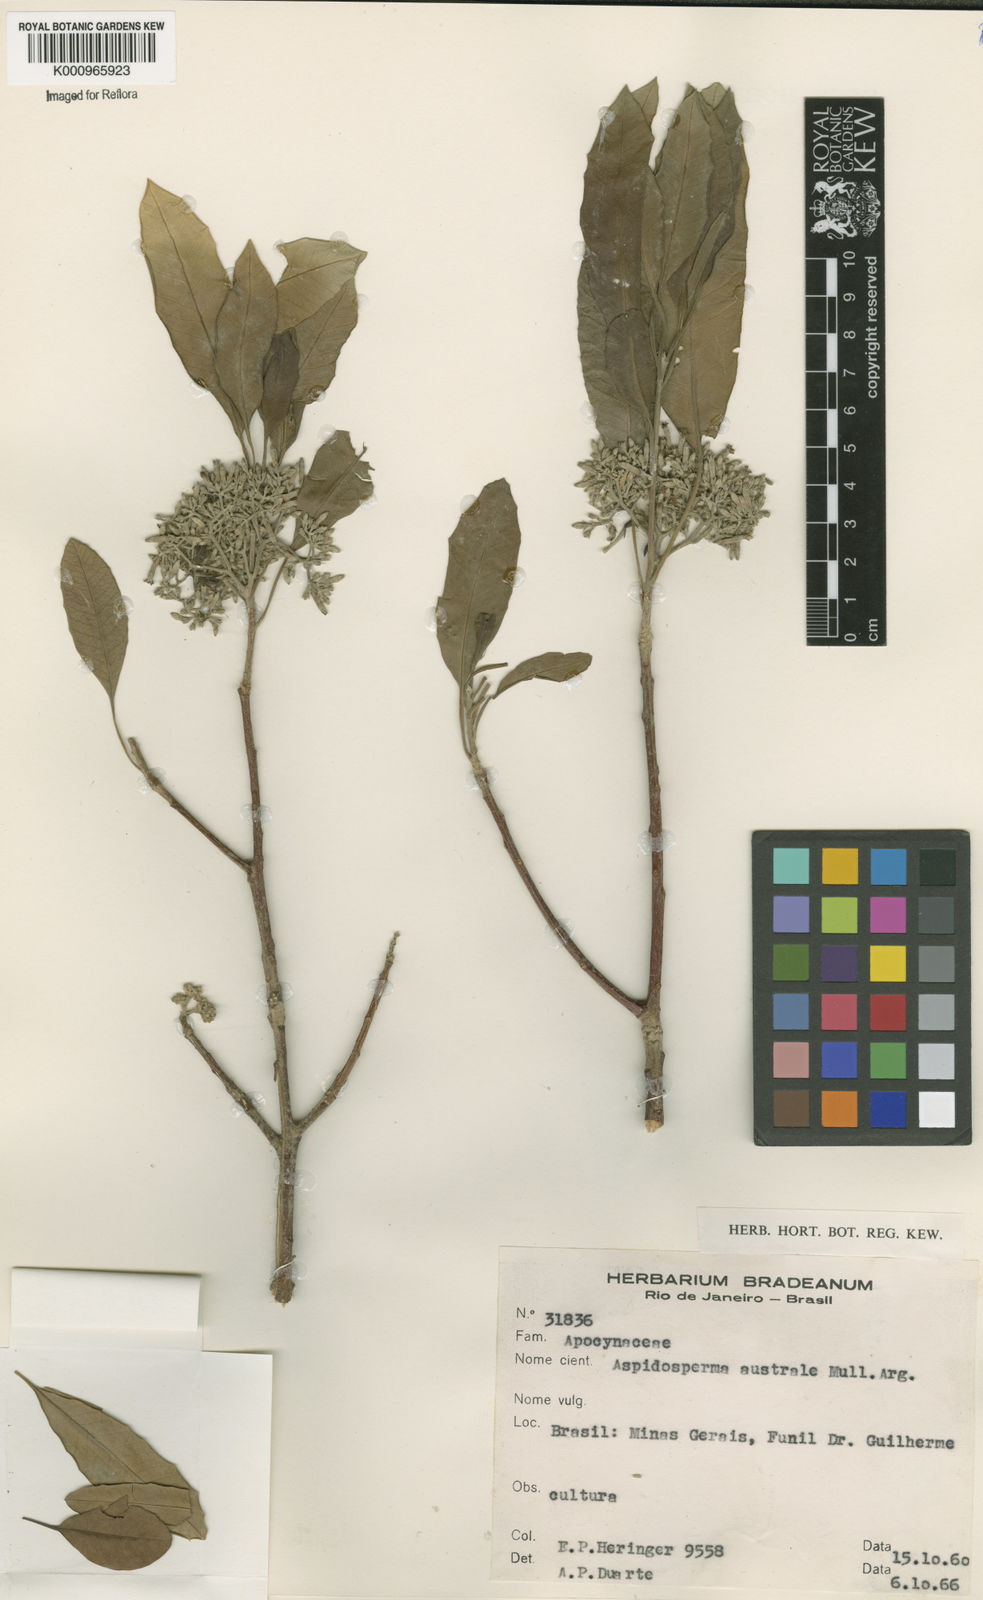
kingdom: Plantae
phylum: Tracheophyta
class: Magnoliopsida
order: Gentianales
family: Apocynaceae
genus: Aspidosperma
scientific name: Aspidosperma
